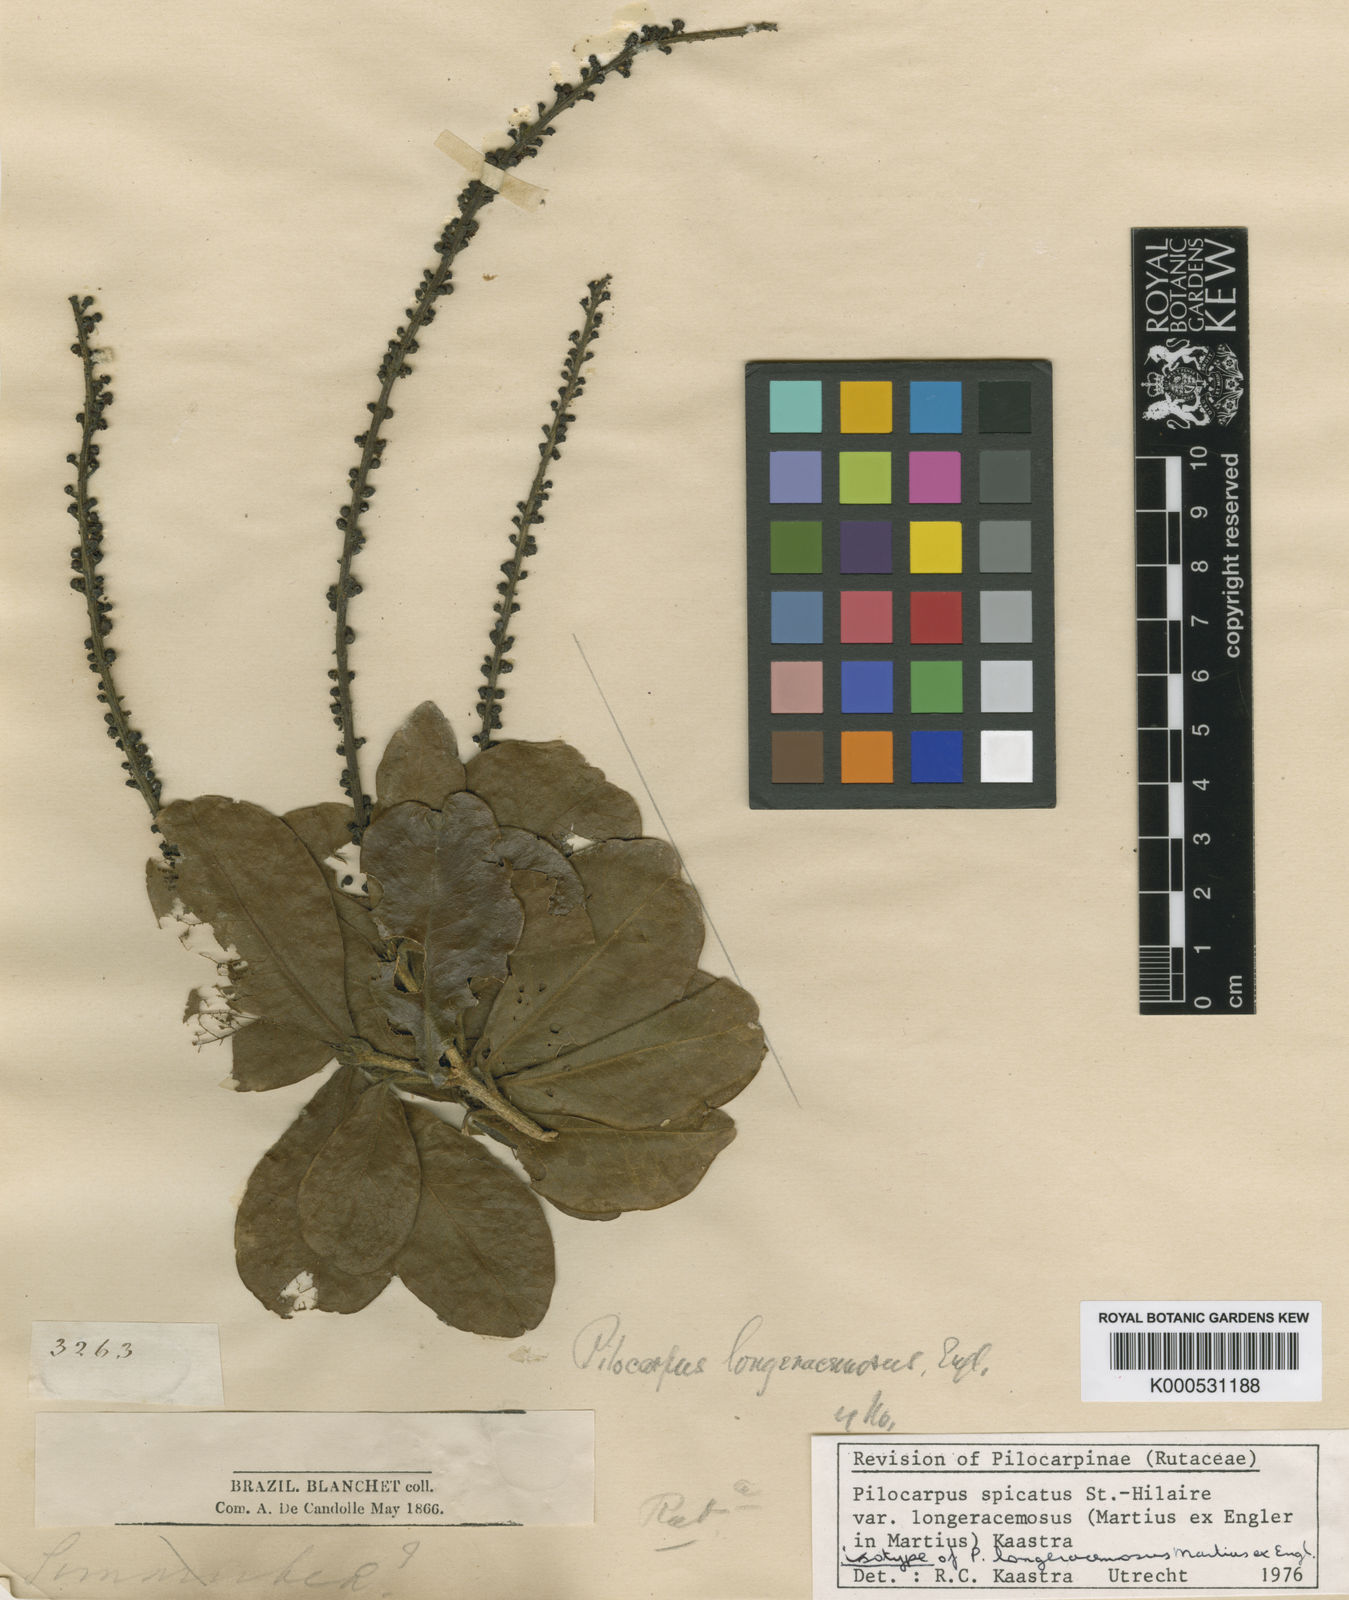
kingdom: Plantae
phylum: Tracheophyta
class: Magnoliopsida
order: Sapindales
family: Rutaceae
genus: Pilocarpus
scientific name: Pilocarpus
